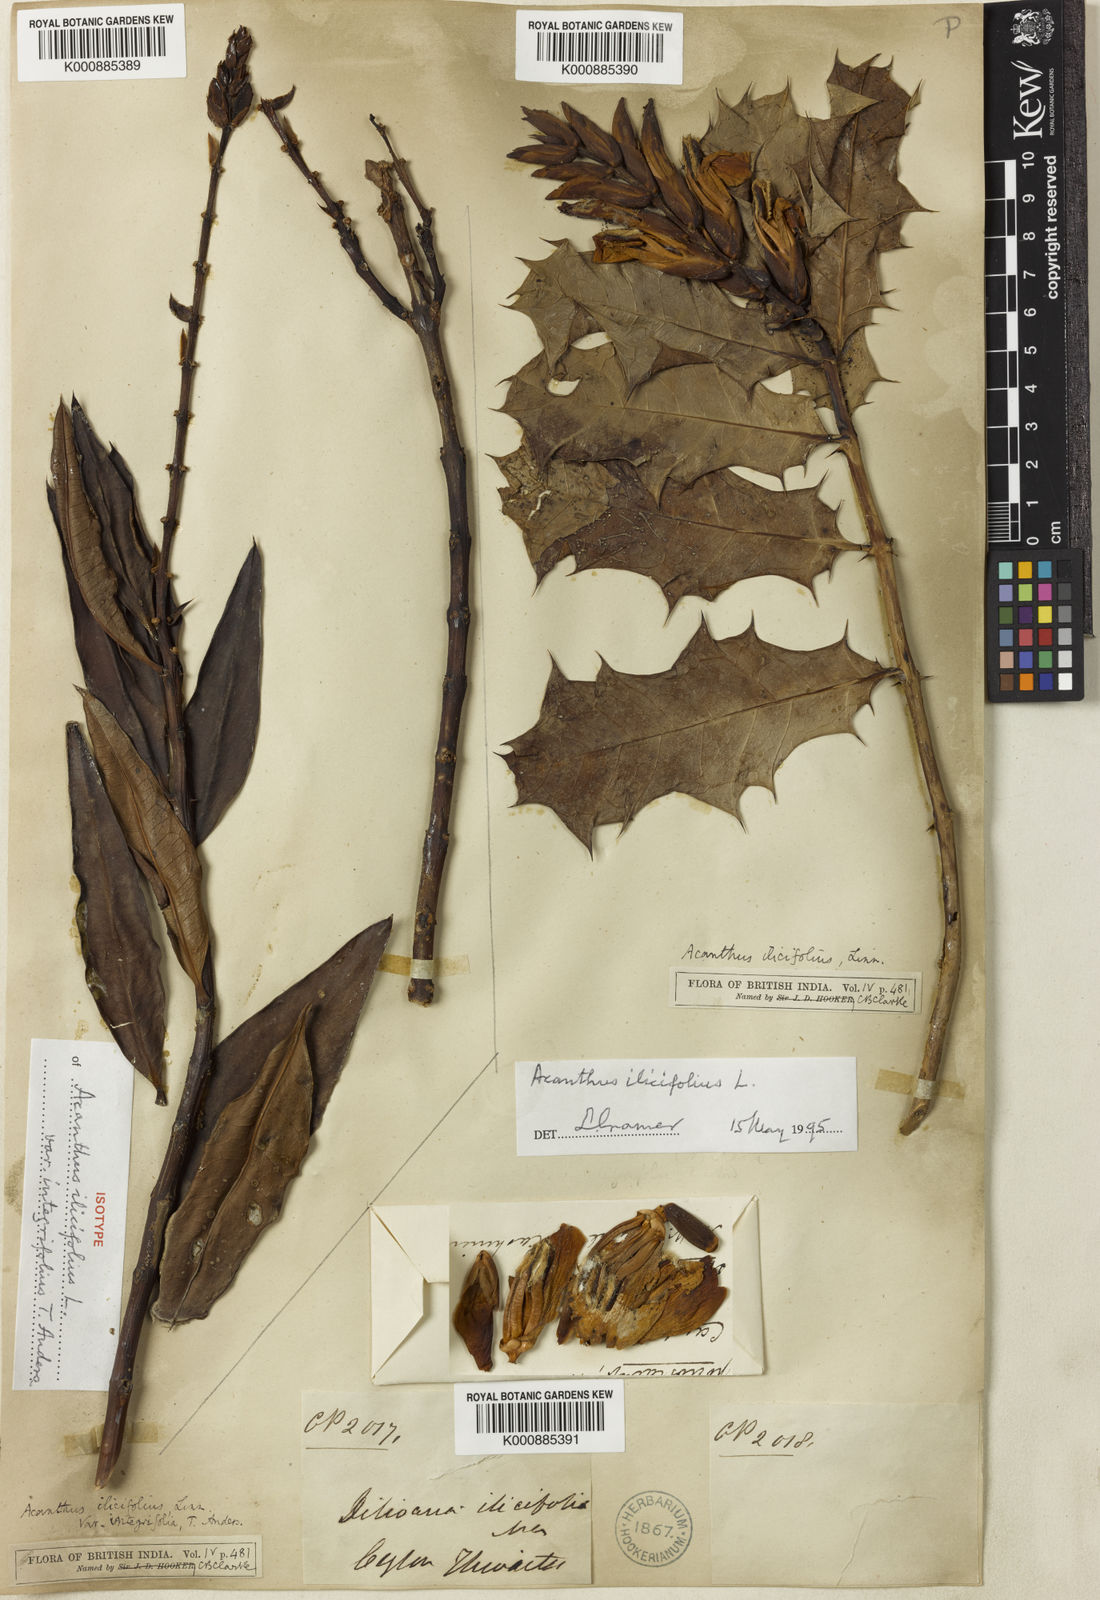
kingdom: Plantae
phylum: Tracheophyta
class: Magnoliopsida
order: Lamiales
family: Acanthaceae
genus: Acanthus
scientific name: Acanthus ilicifolius
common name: Holy mangrove
